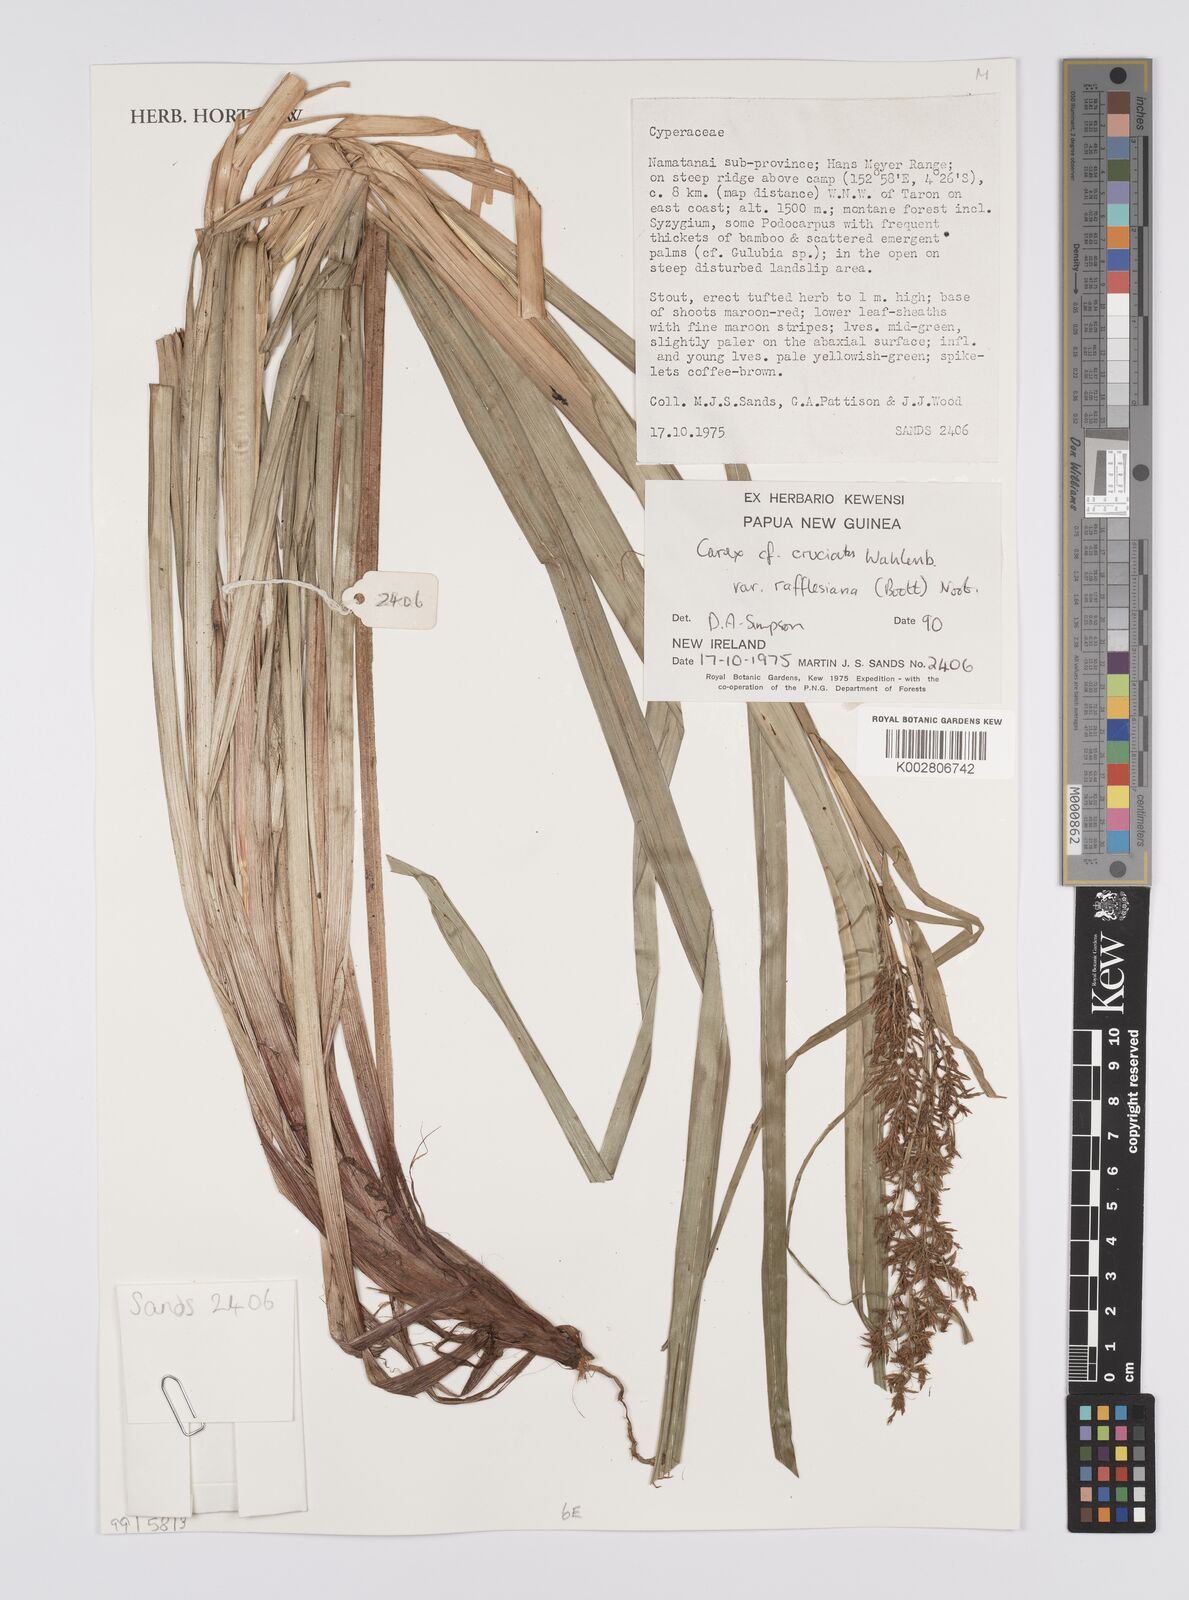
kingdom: Plantae
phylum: Tracheophyta
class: Liliopsida
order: Poales
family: Cyperaceae
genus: Carex
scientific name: Carex rafflesiana
